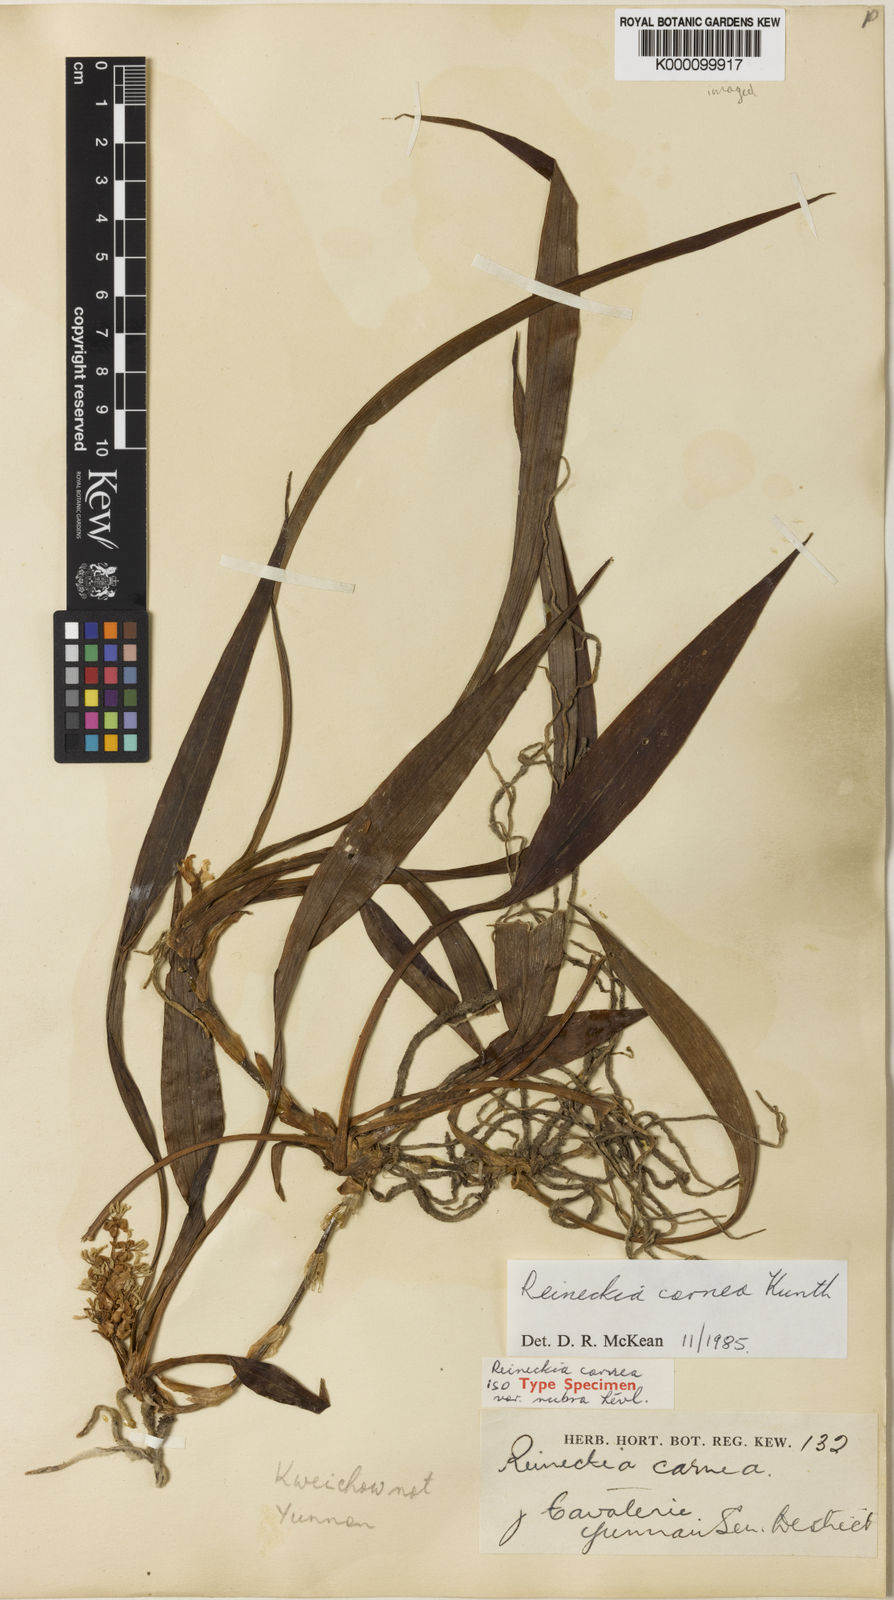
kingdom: Plantae
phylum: Tracheophyta
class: Liliopsida
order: Asparagales
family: Asparagaceae
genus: Reineckea
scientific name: Reineckea carnea
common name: Reineckea
